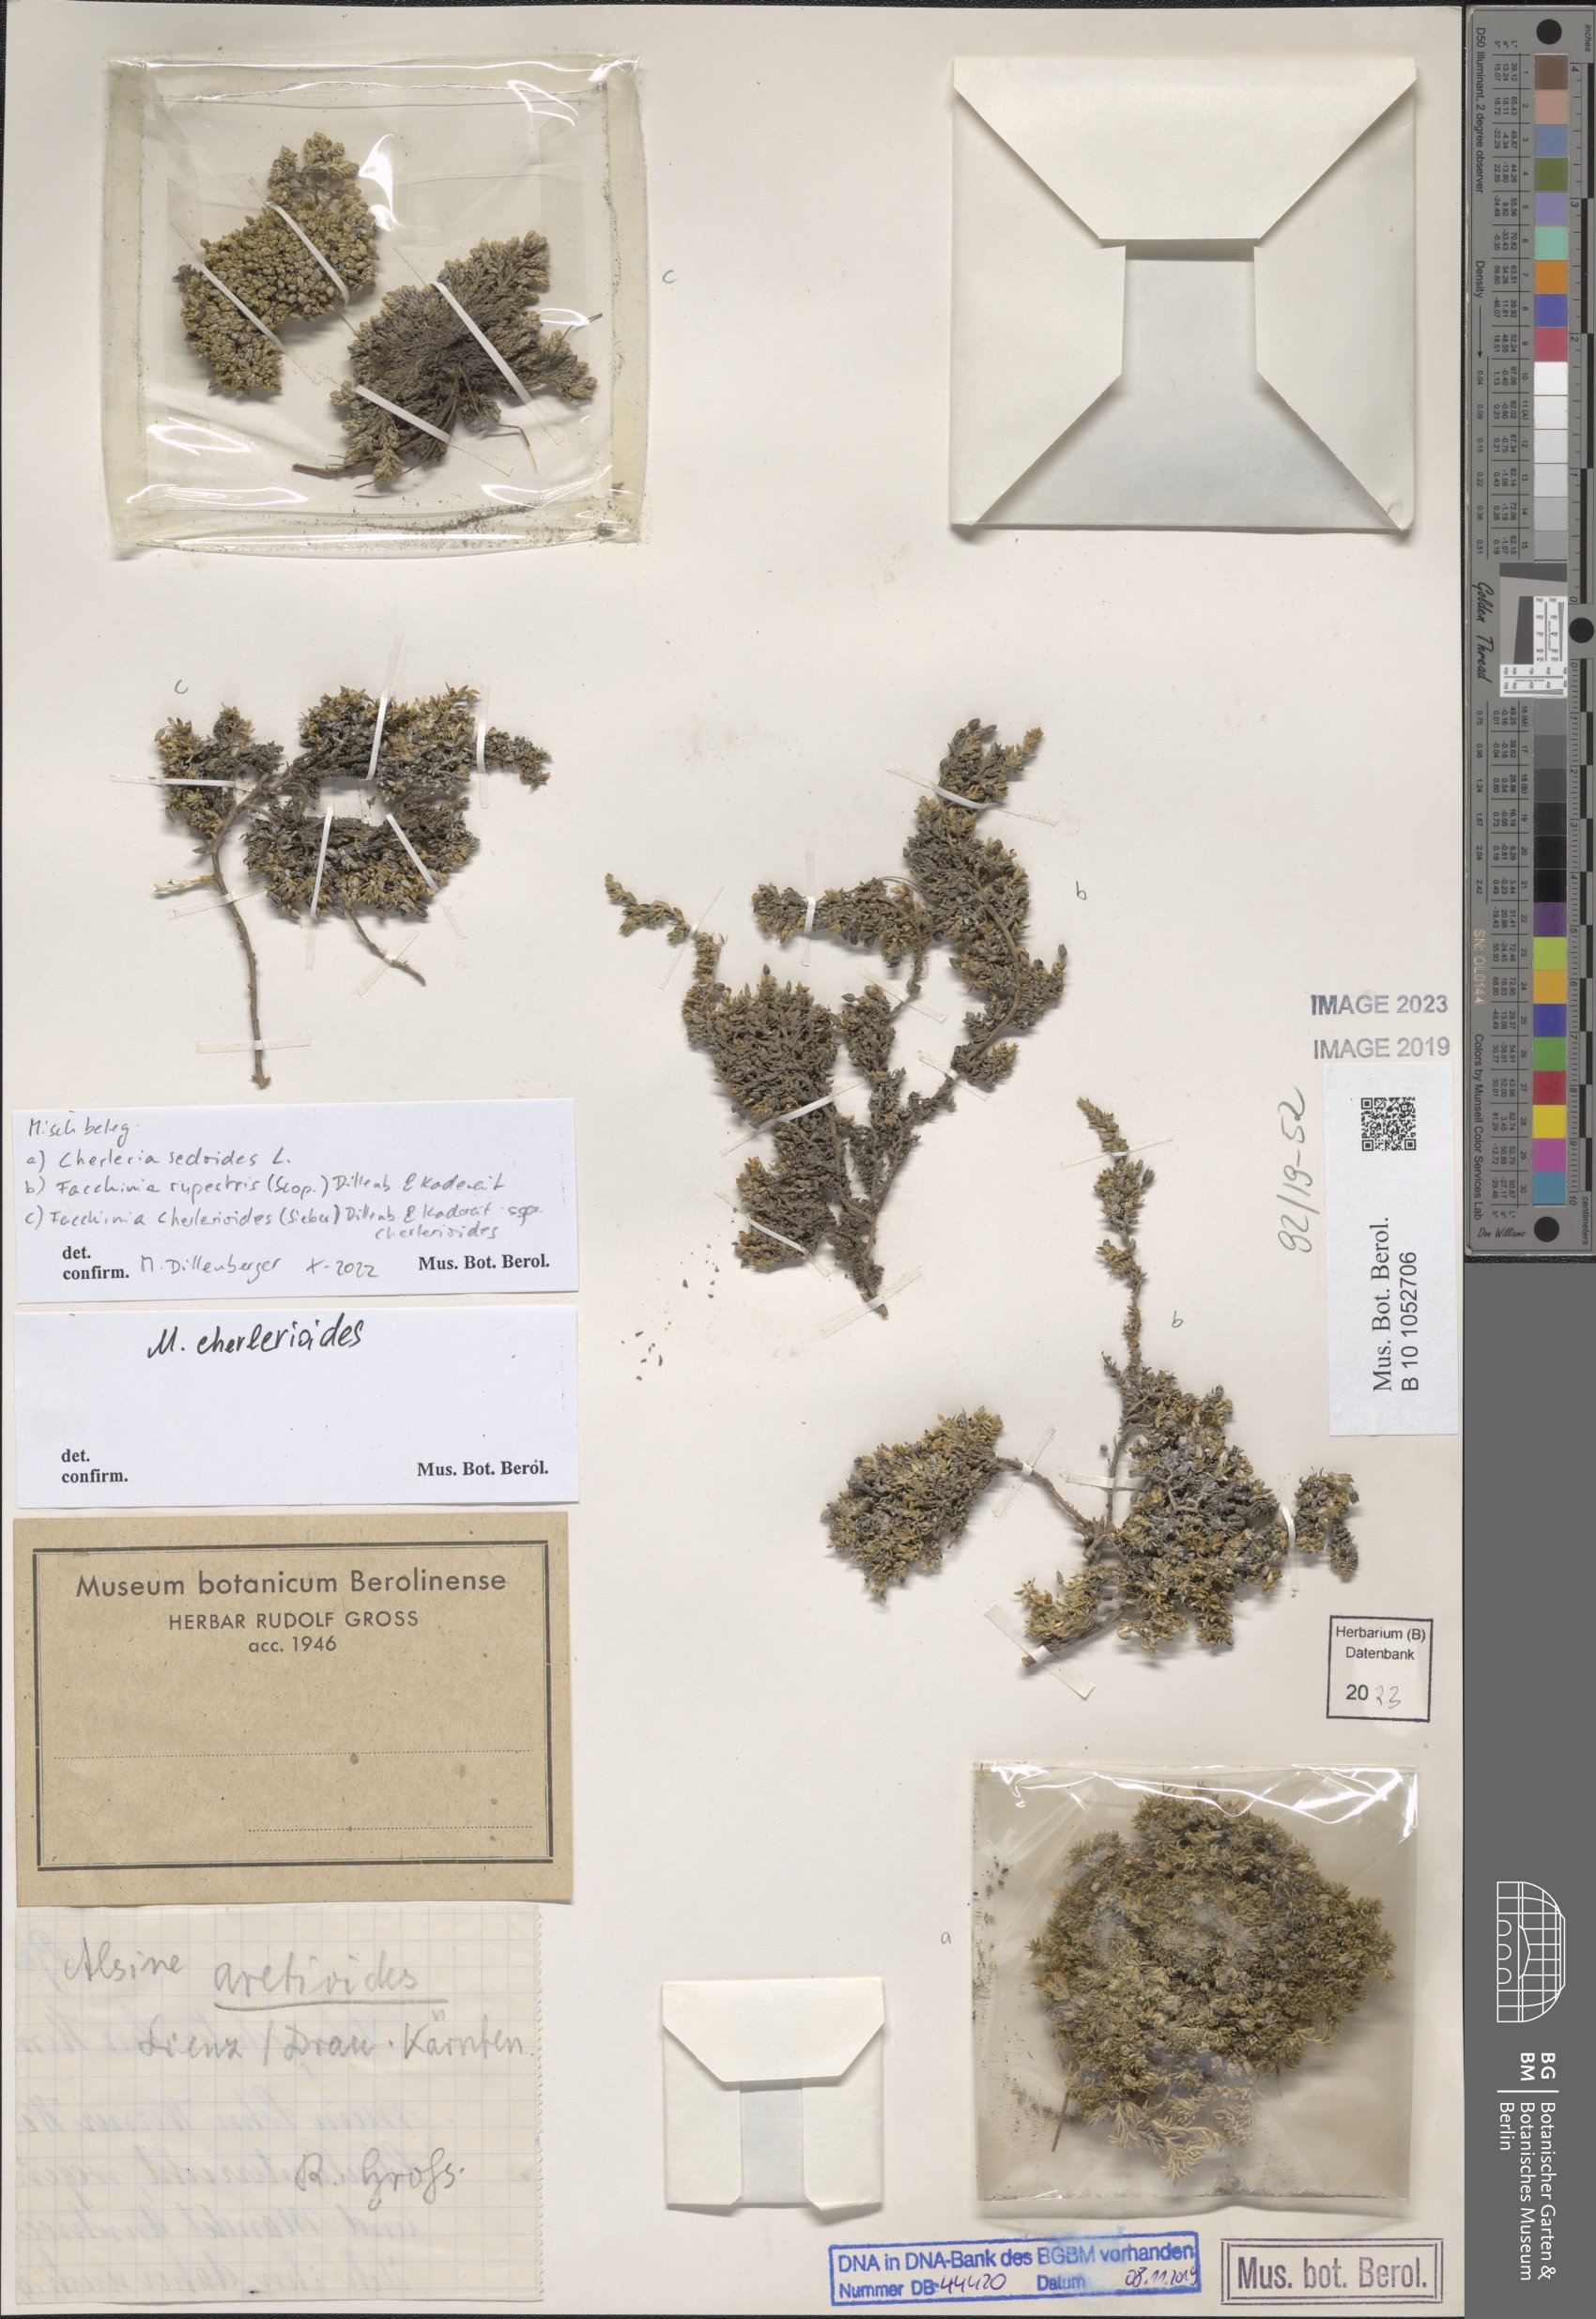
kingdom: Plantae
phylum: Tracheophyta
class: Magnoliopsida
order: Caryophyllales
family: Caryophyllaceae
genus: Cherleria
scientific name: Cherleria sedoides
